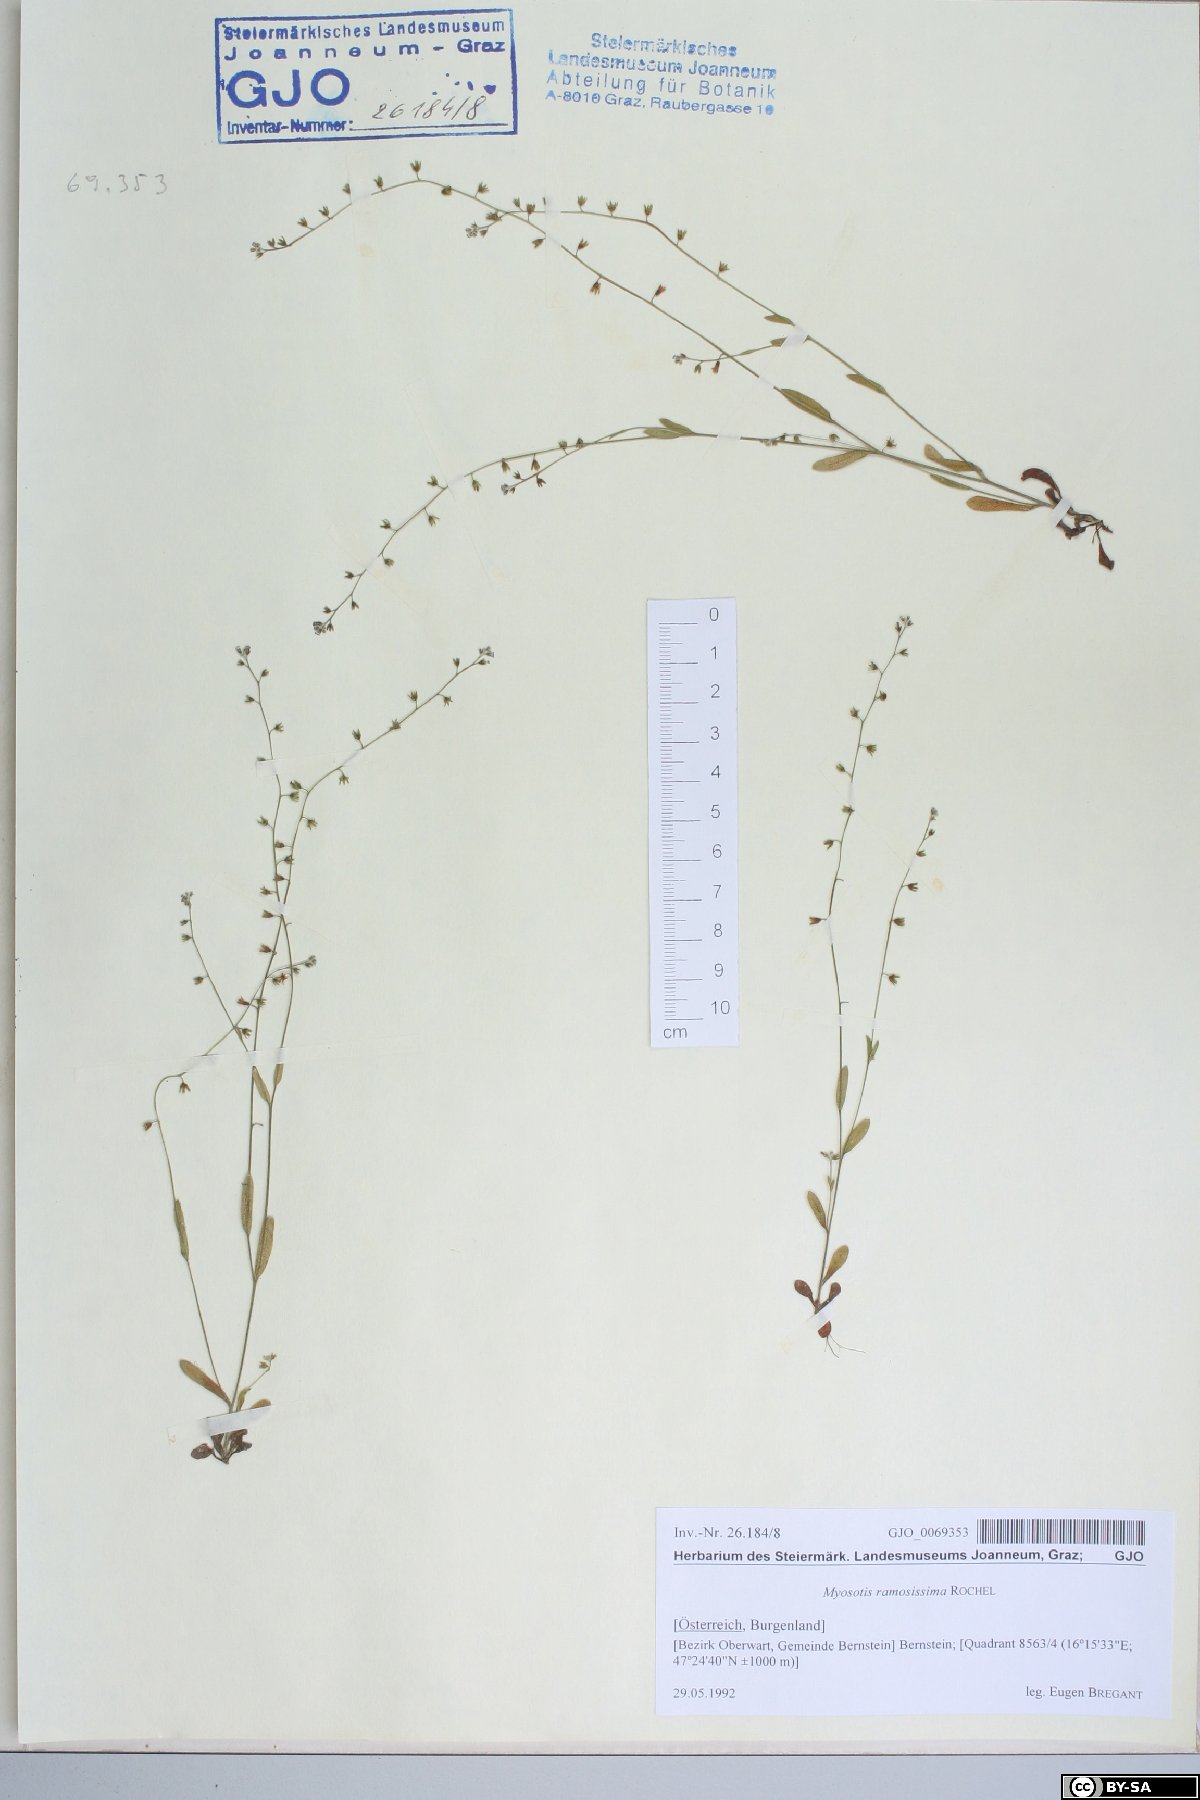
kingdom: Plantae
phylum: Tracheophyta
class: Magnoliopsida
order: Boraginales
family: Boraginaceae
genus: Myosotis
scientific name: Myosotis ramosissima
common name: Early forget-me-not
